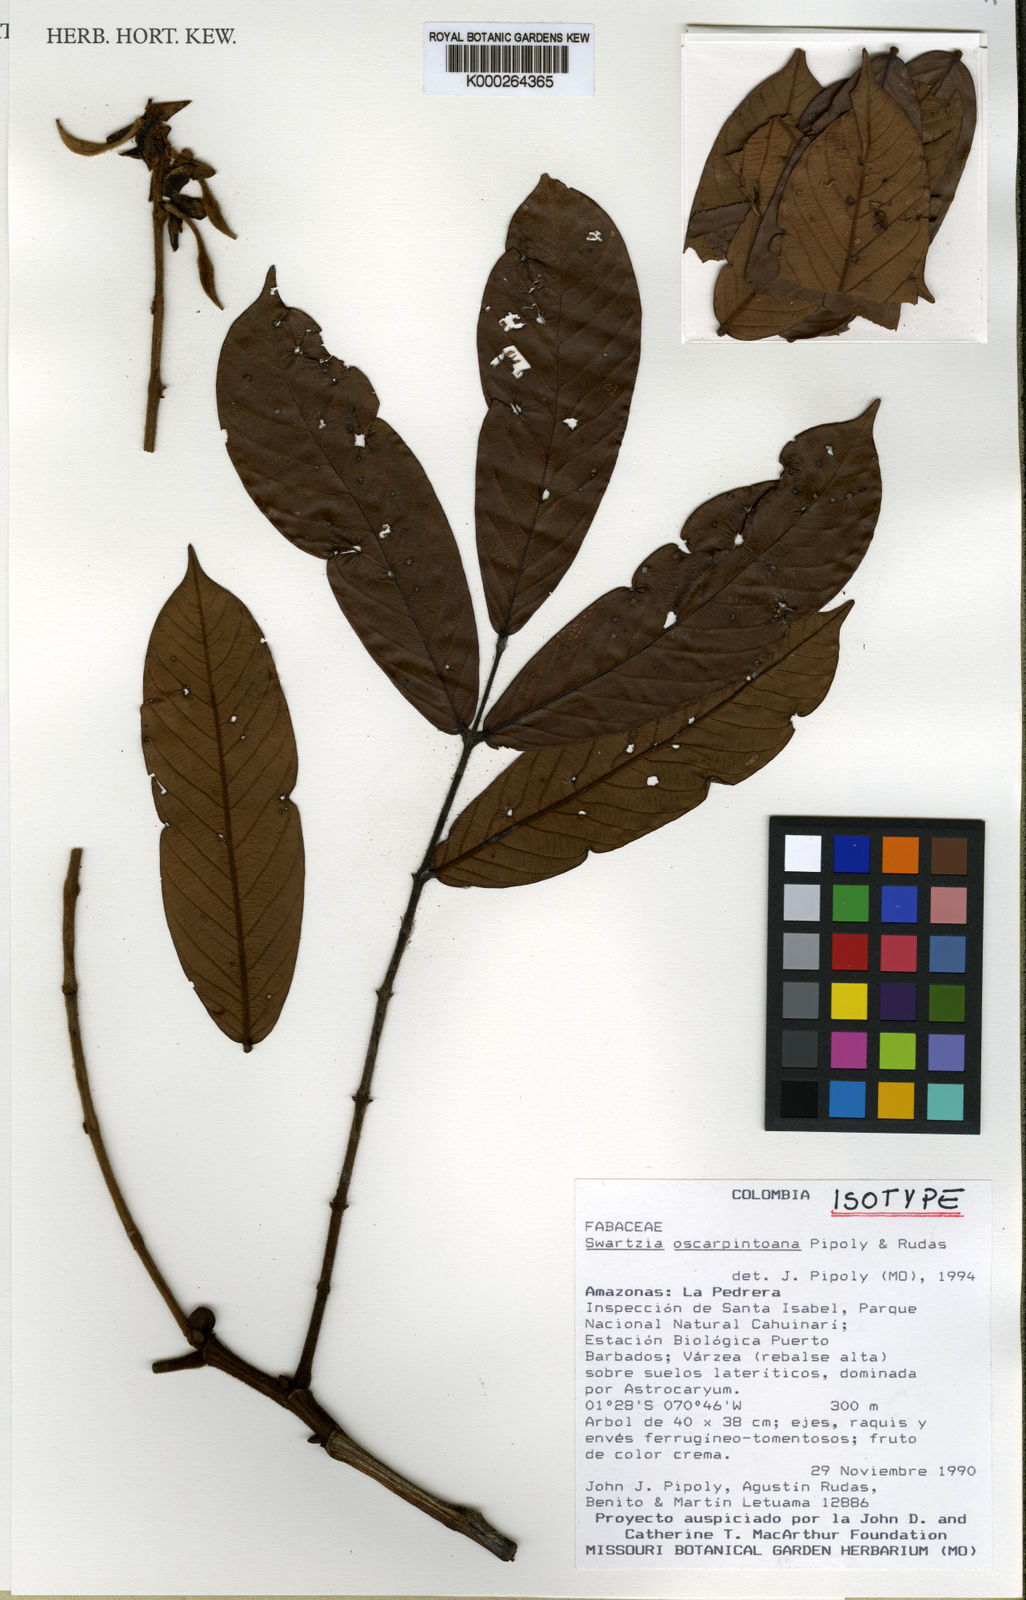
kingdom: Plantae
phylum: Tracheophyta
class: Magnoliopsida
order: Fabales
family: Fabaceae
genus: Swartzia
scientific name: Swartzia oscarpintoana
